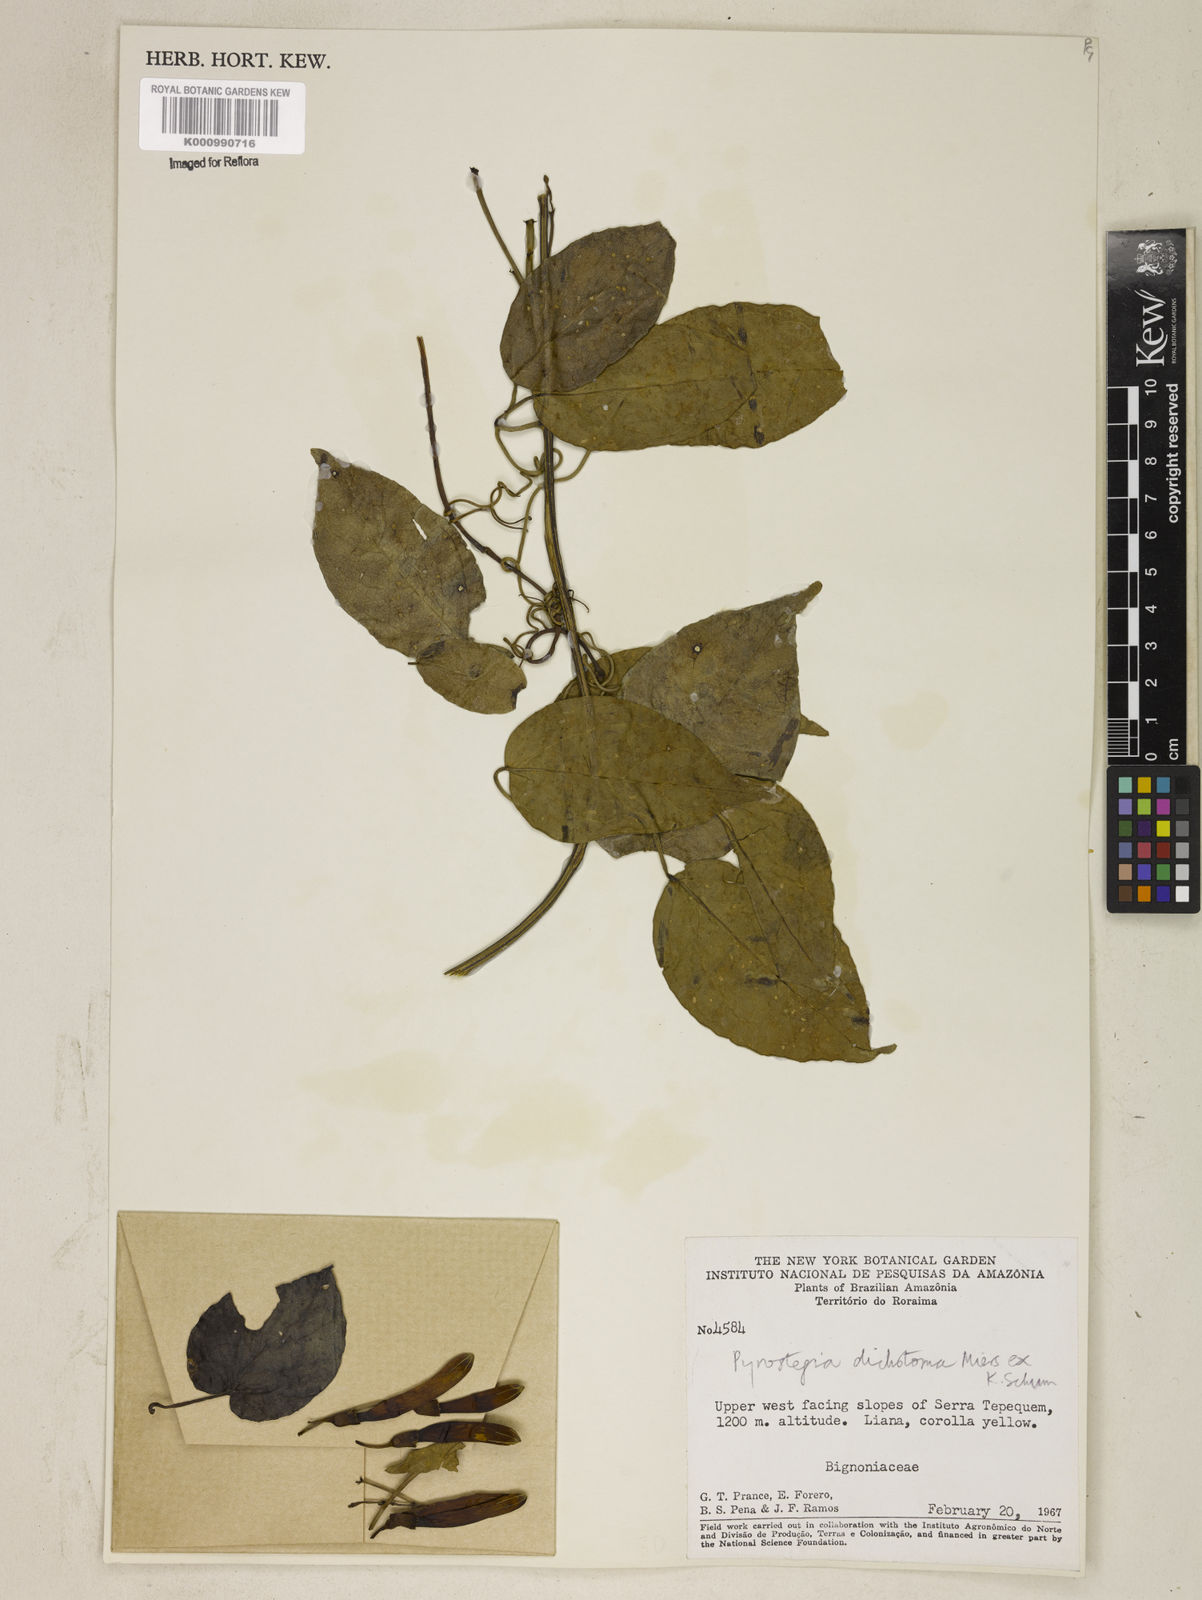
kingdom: Plantae
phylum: Tracheophyta
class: Magnoliopsida
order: Lamiales
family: Bignoniaceae
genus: Pyrostegia
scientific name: Pyrostegia
